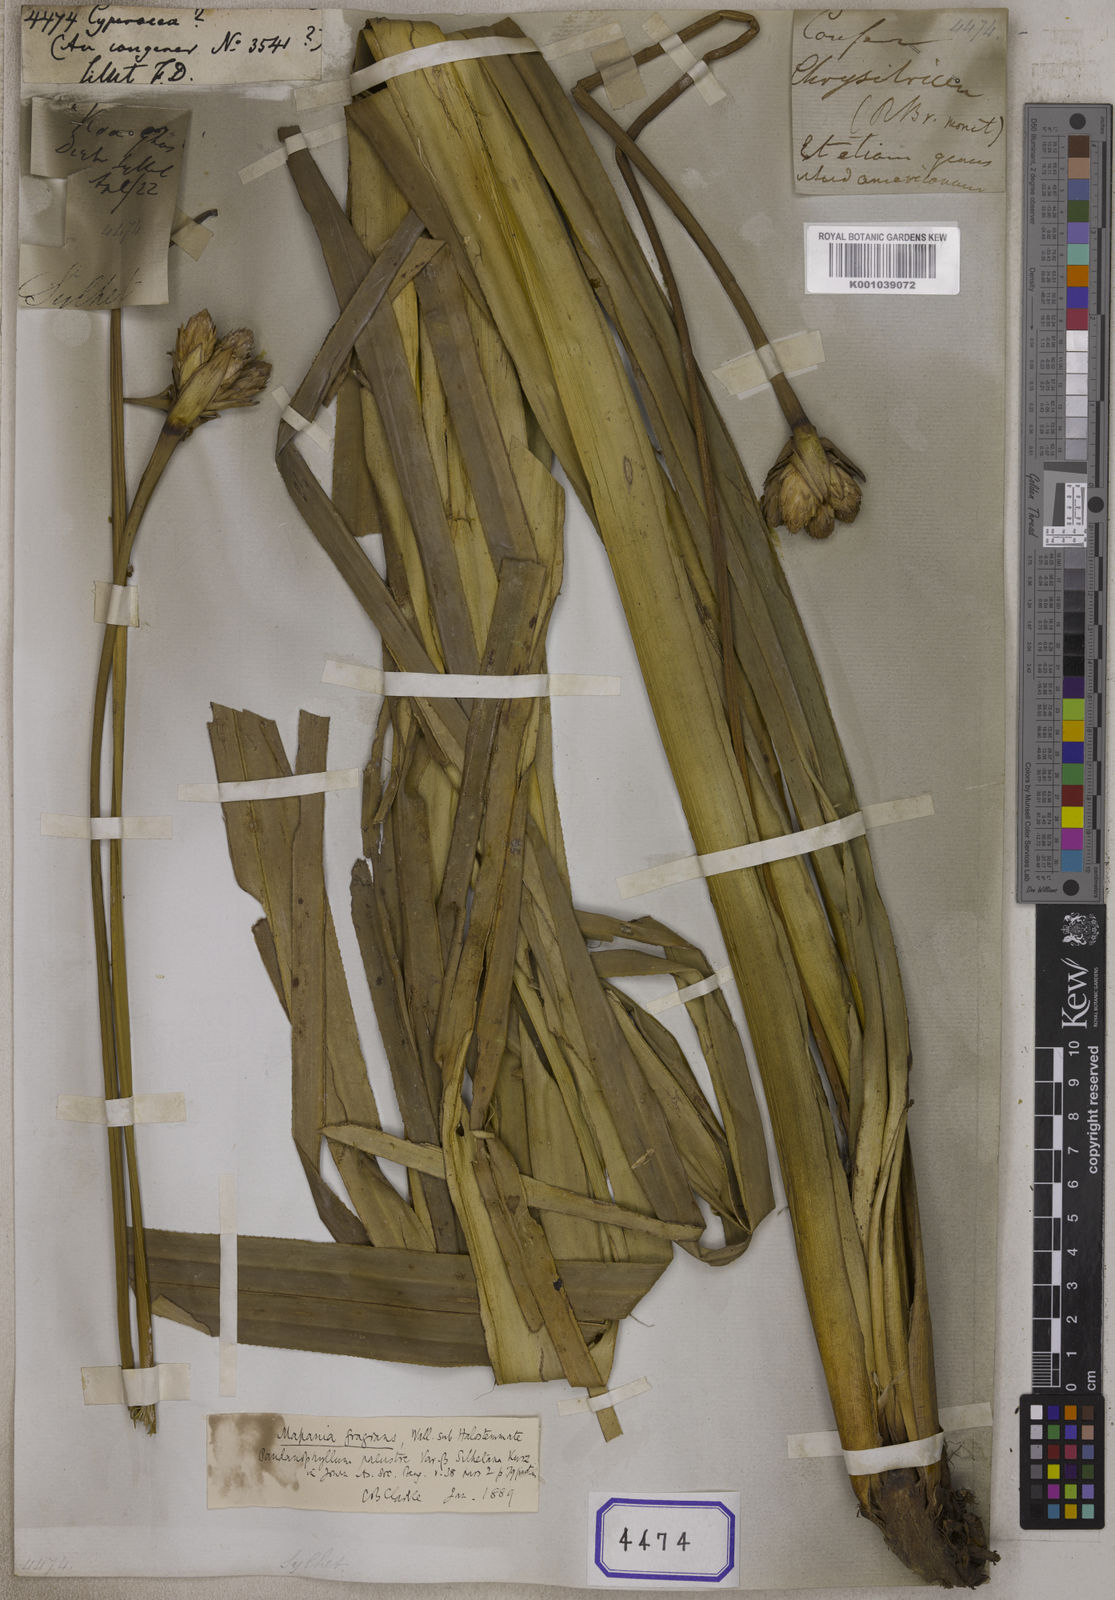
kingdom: Plantae
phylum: Tracheophyta
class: Liliopsida
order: Poales
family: Cyperaceae
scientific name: Cyperaceae
